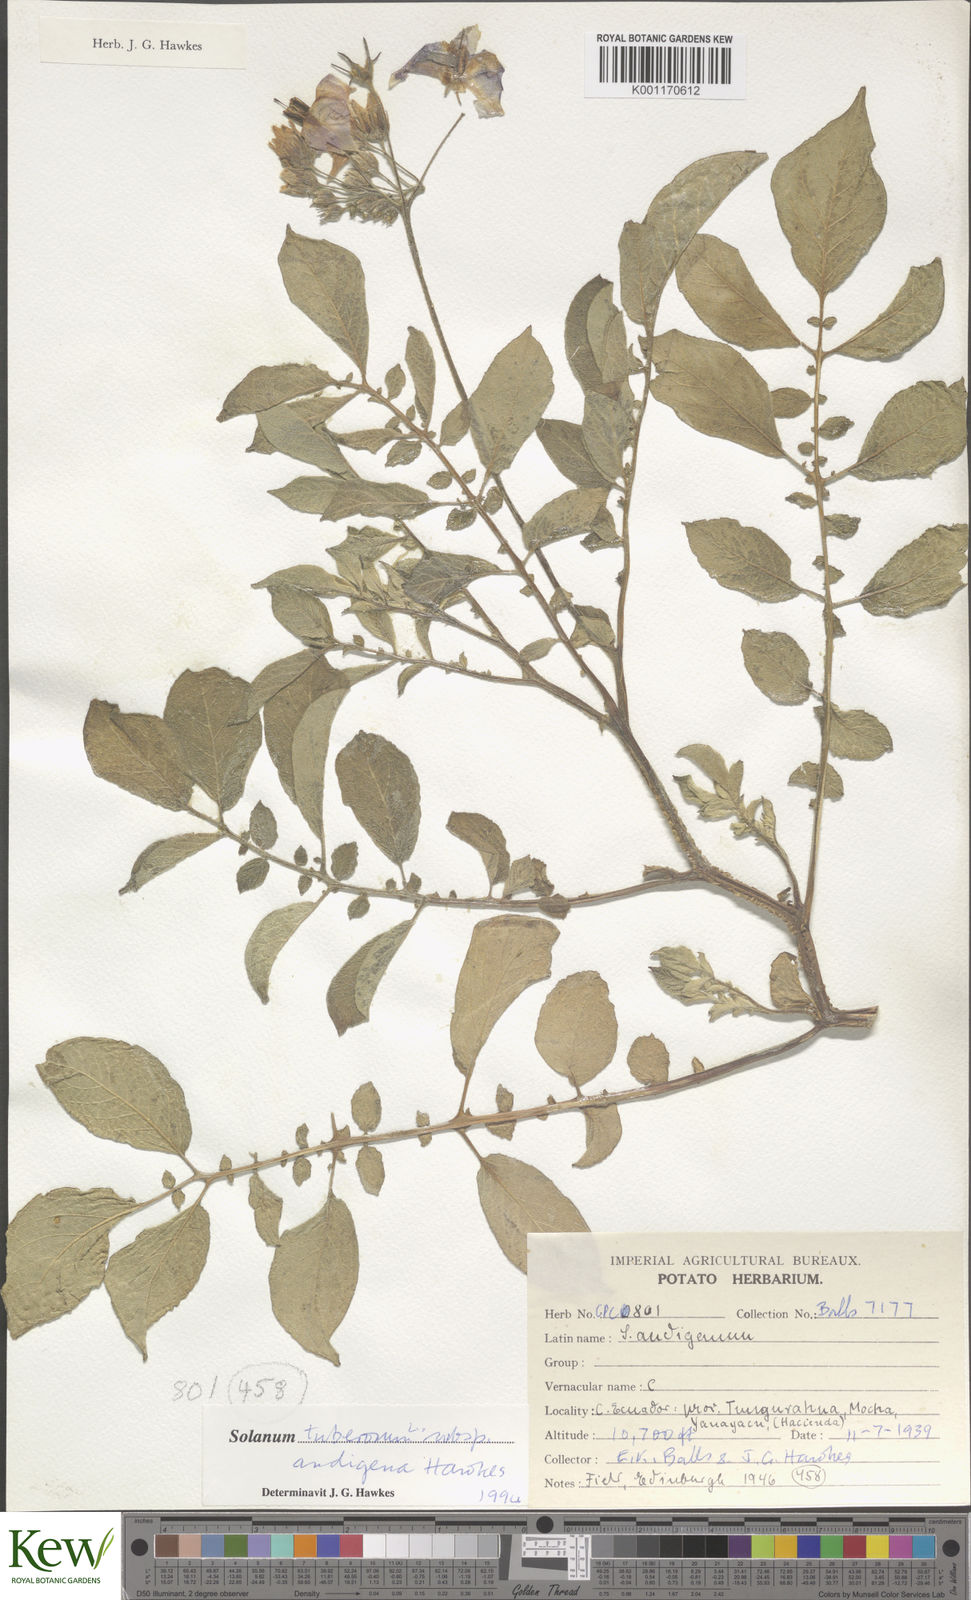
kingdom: Plantae
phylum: Tracheophyta
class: Magnoliopsida
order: Solanales
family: Solanaceae
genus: Solanum
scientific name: Solanum tuberosum
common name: Potato
